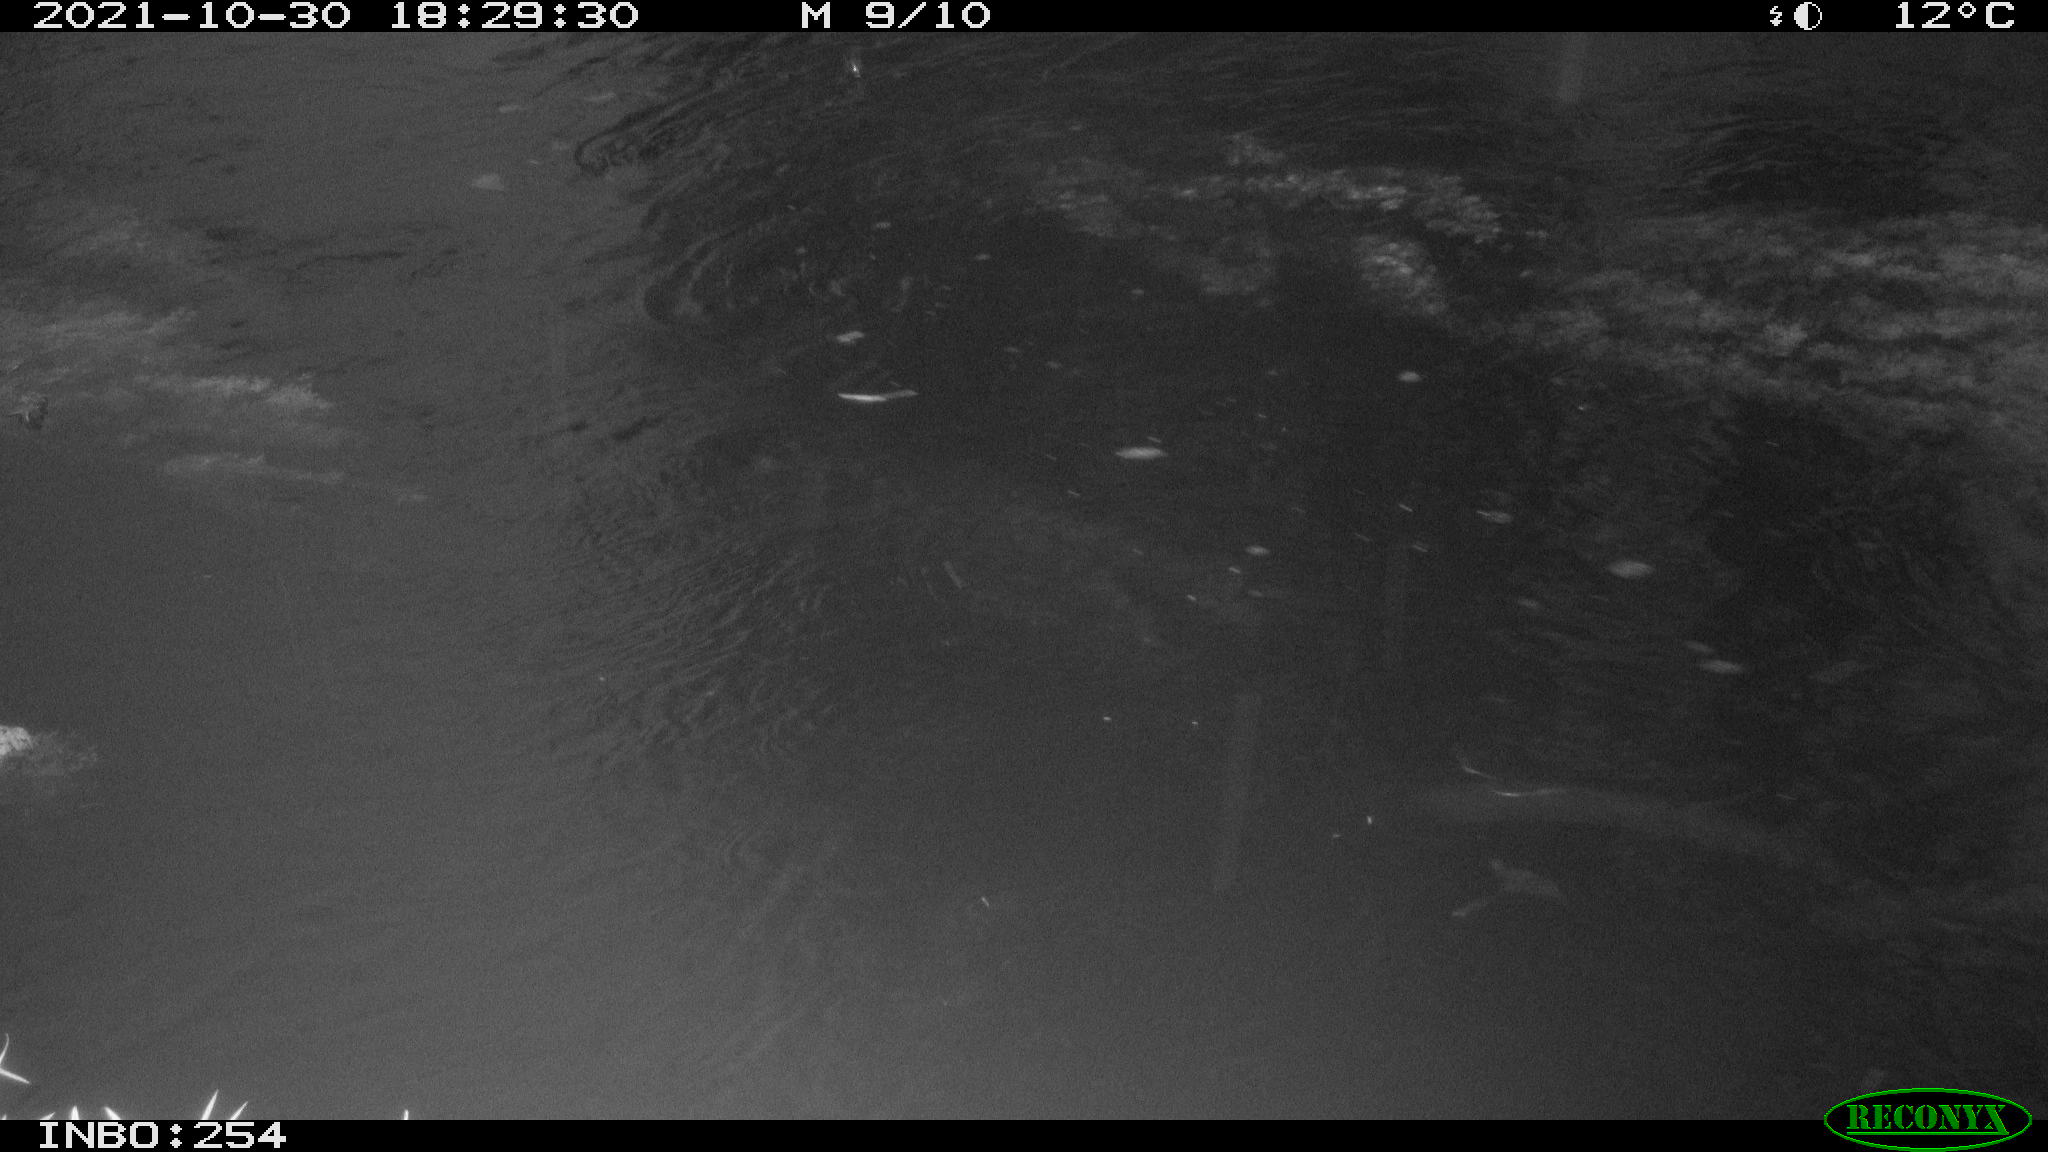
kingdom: Animalia
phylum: Chordata
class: Aves
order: Anseriformes
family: Anatidae
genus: Anas
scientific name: Anas platyrhynchos
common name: Mallard
